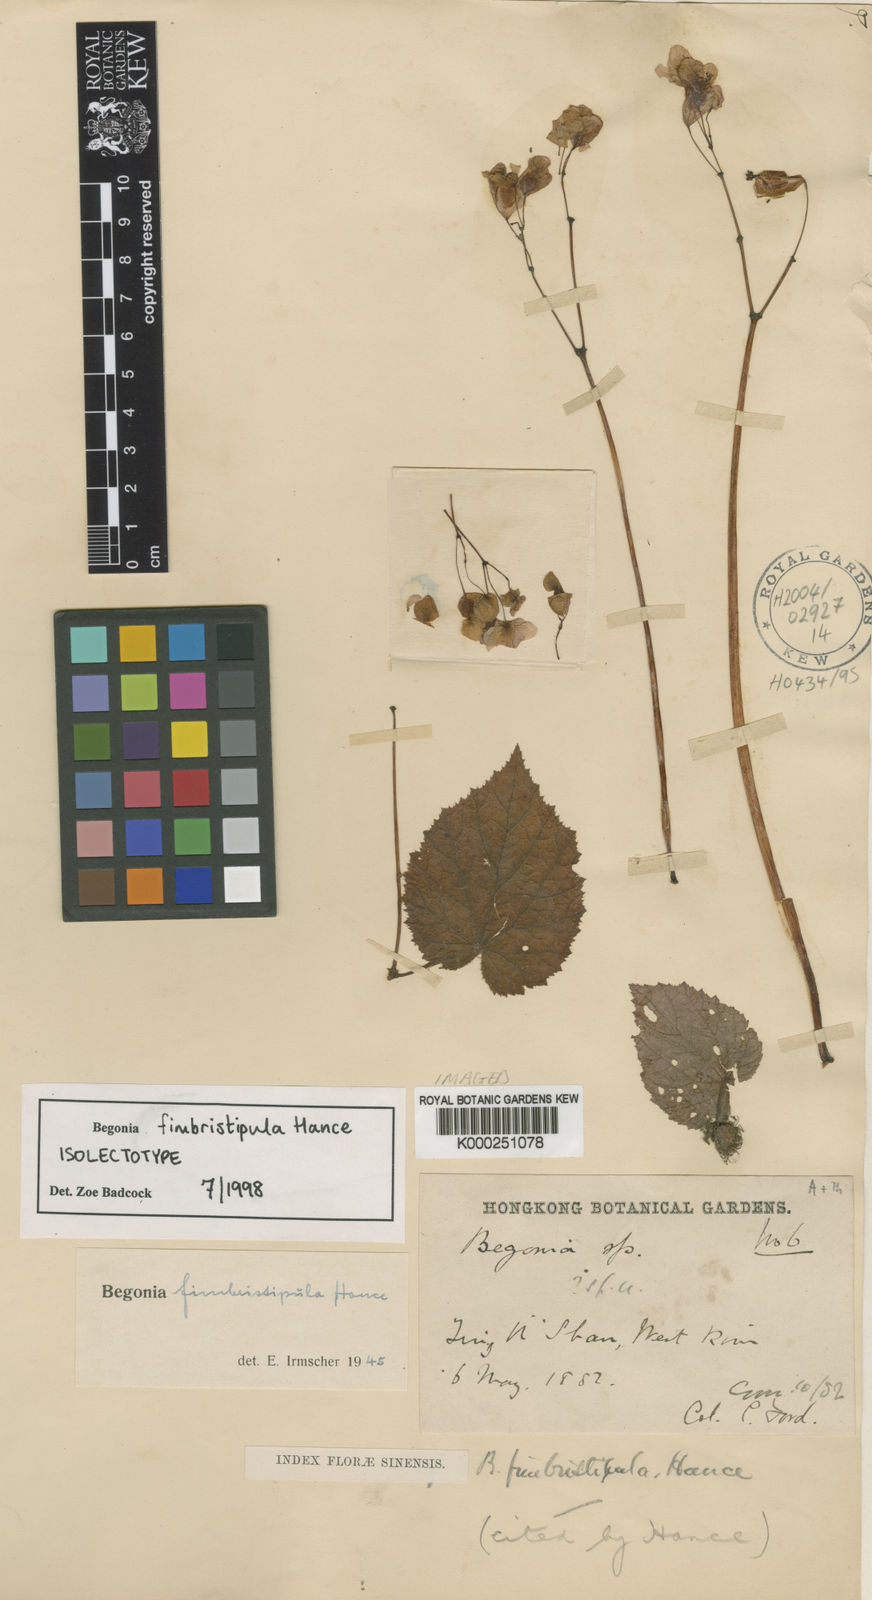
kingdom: Plantae
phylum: Tracheophyta
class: Magnoliopsida
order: Cucurbitales
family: Begoniaceae
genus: Begonia
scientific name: Begonia fimbristipula
